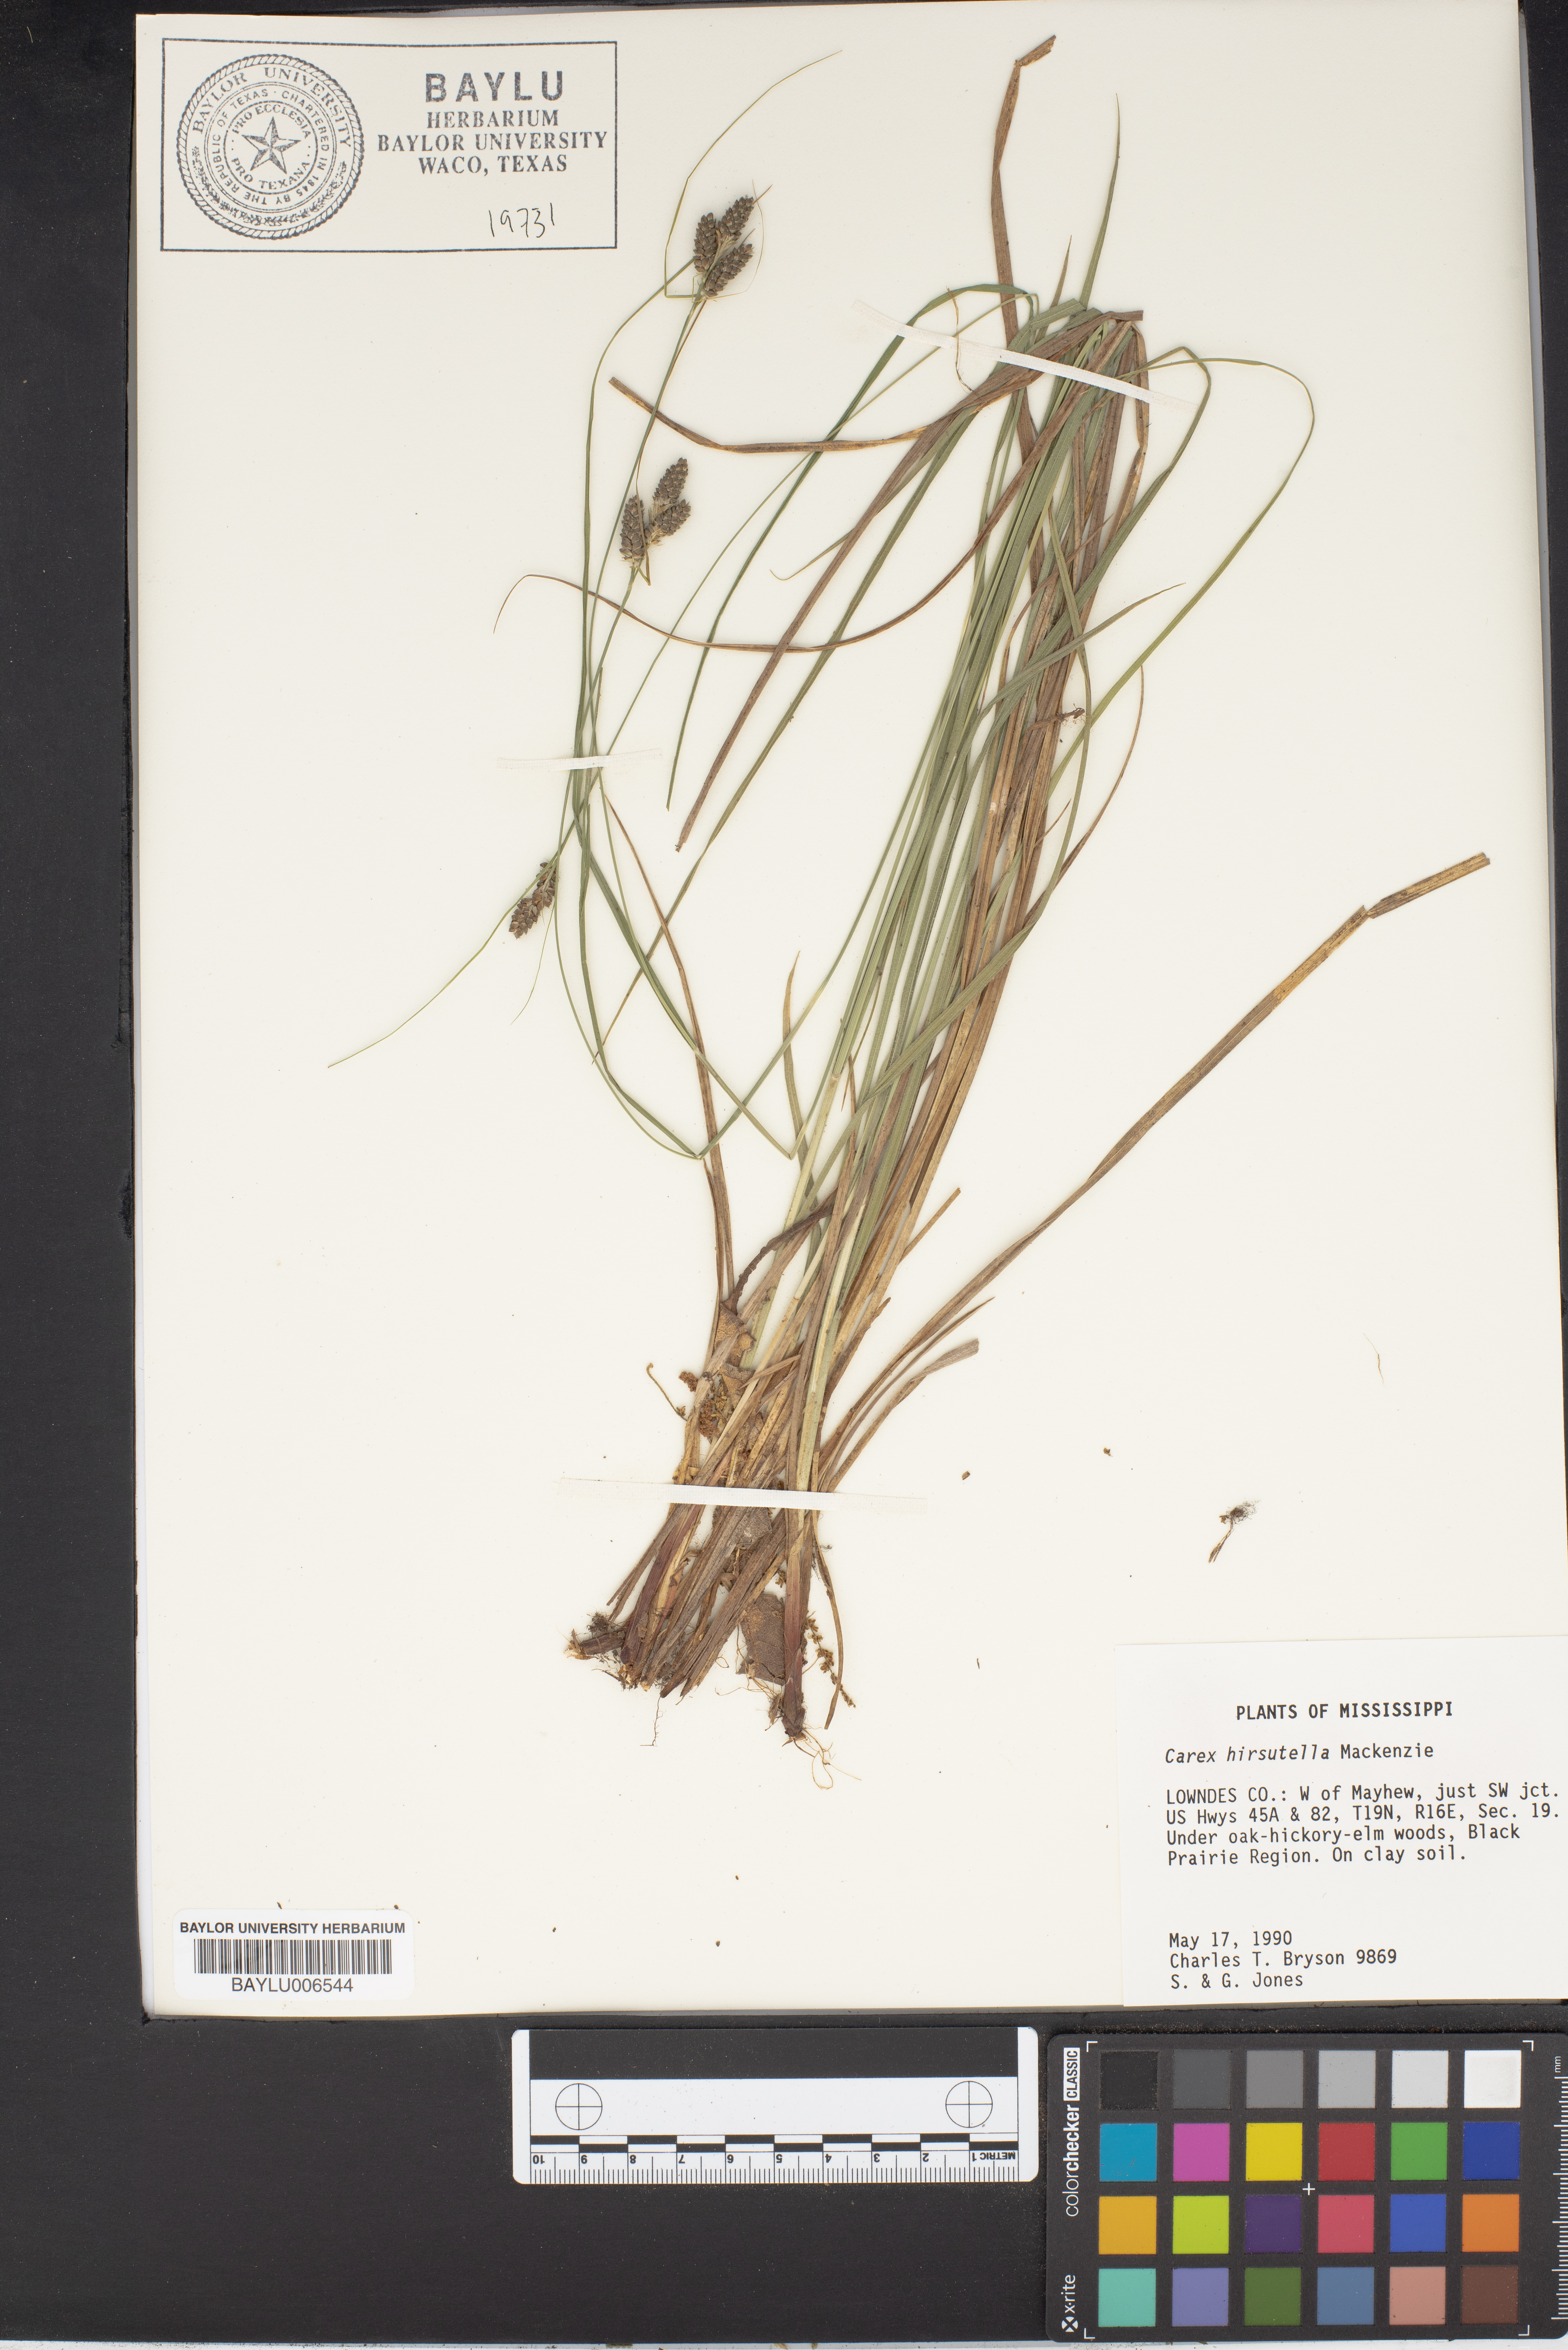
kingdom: Plantae
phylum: Tracheophyta
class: Liliopsida
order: Poales
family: Cyperaceae
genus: Carex
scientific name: Carex norvegica
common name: Close-headed alpine-sedge
